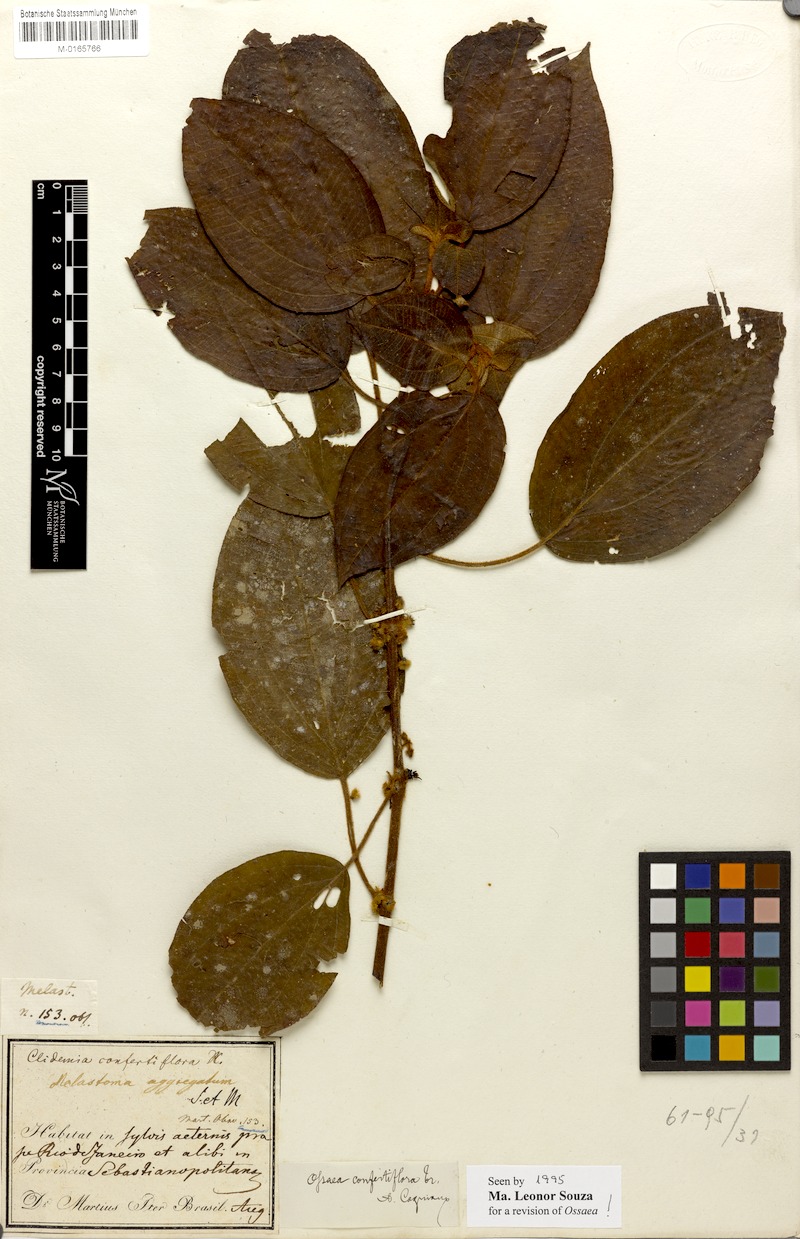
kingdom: Plantae
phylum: Tracheophyta
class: Magnoliopsida
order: Myrtales
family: Melastomataceae
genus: Miconia
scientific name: Miconia rubella
